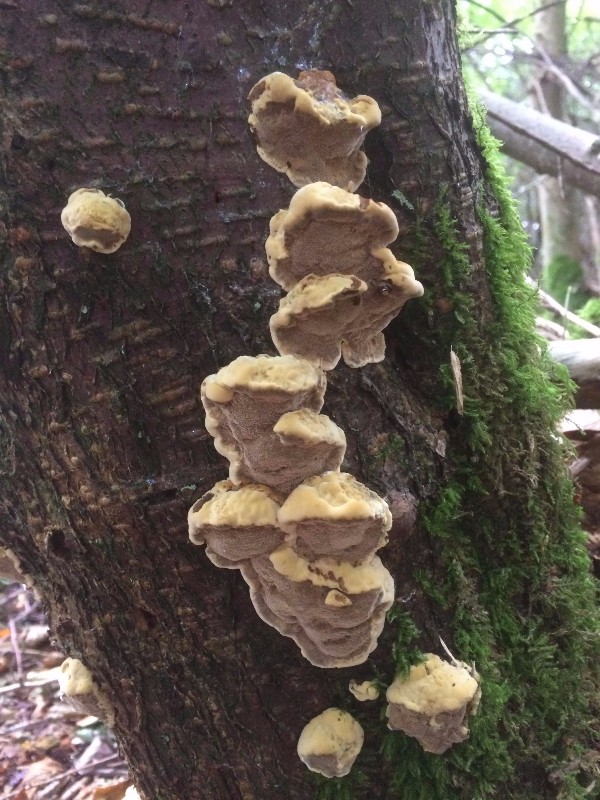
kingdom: Fungi
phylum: Basidiomycota
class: Agaricomycetes
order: Hymenochaetales
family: Hymenochaetaceae
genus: Xanthoporia
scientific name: Xanthoporia radiata
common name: elle-spejlporesvamp
